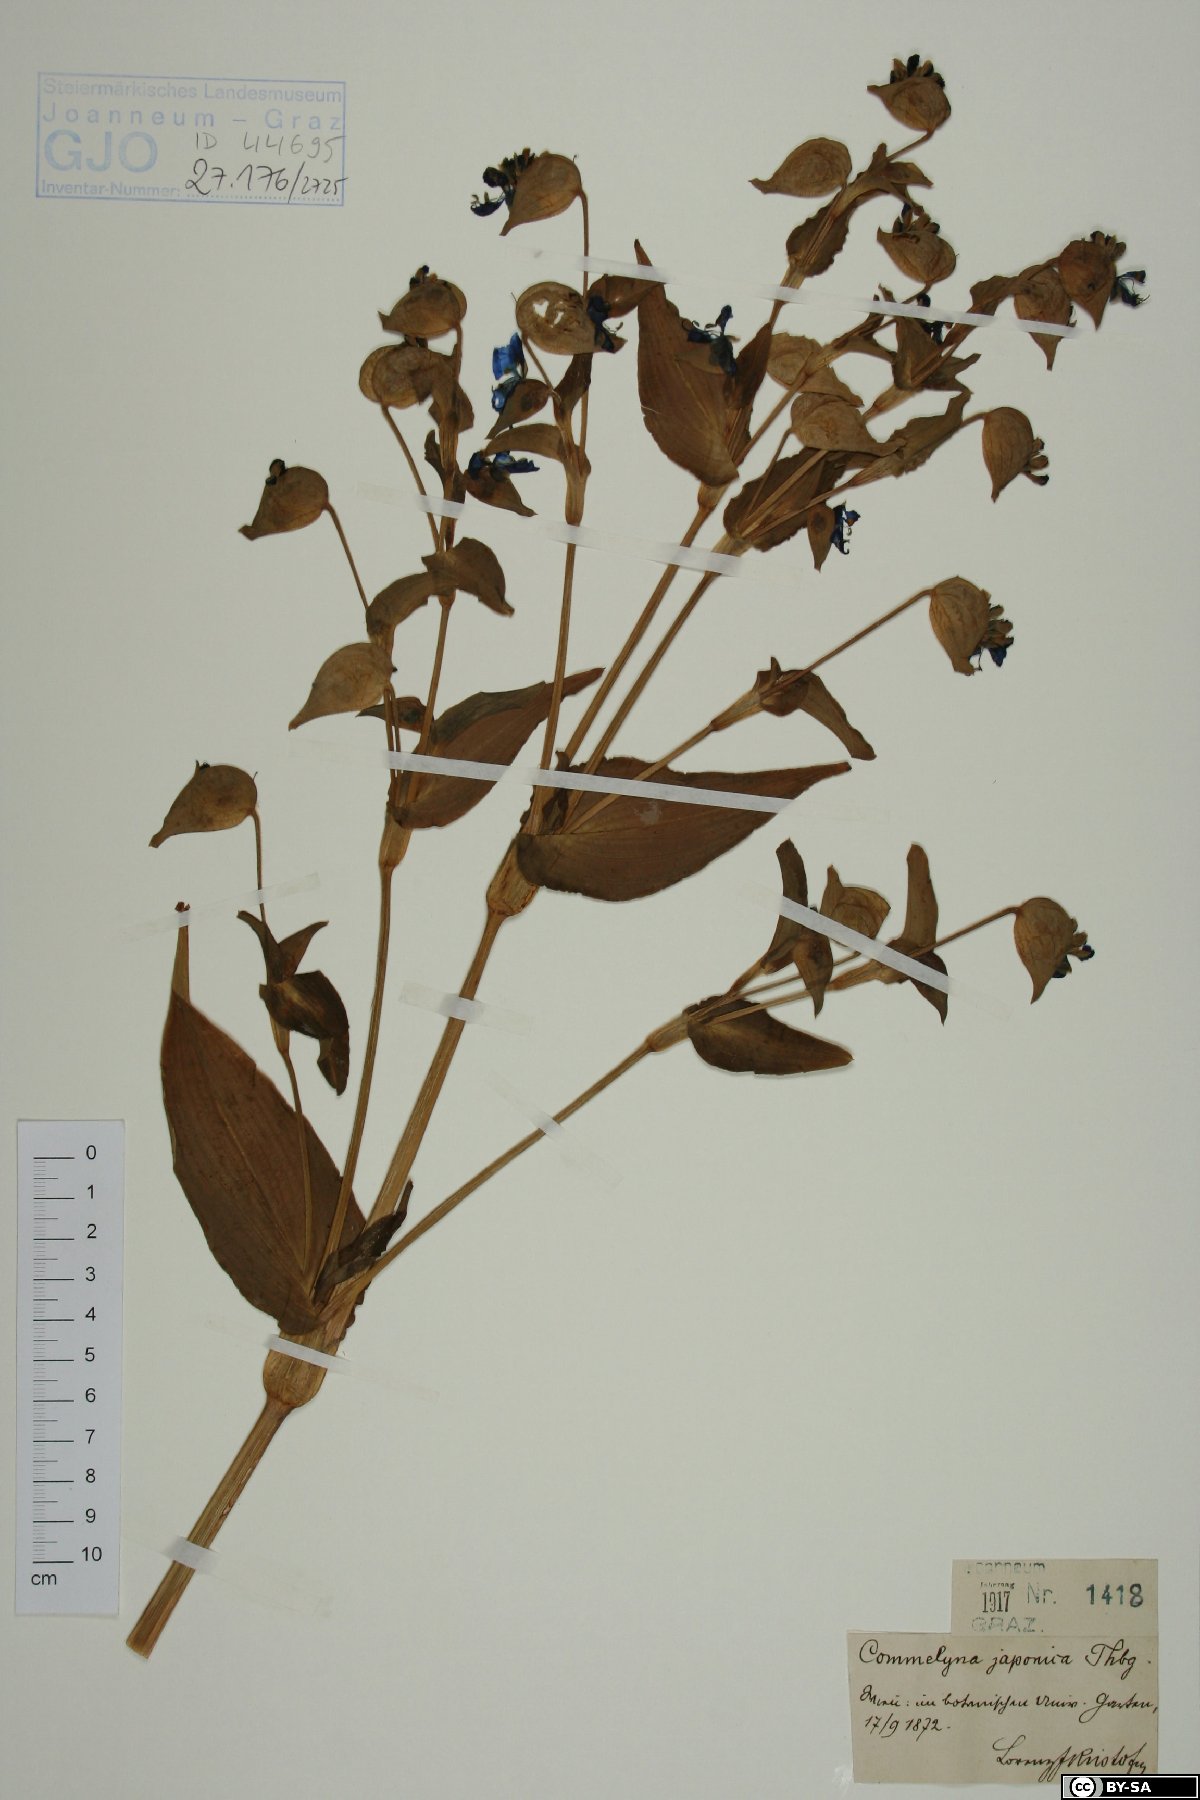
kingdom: Plantae
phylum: Tracheophyta
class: Liliopsida
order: Commelinales
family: Commelinaceae
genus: Murdannia
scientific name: Murdannia japonica
